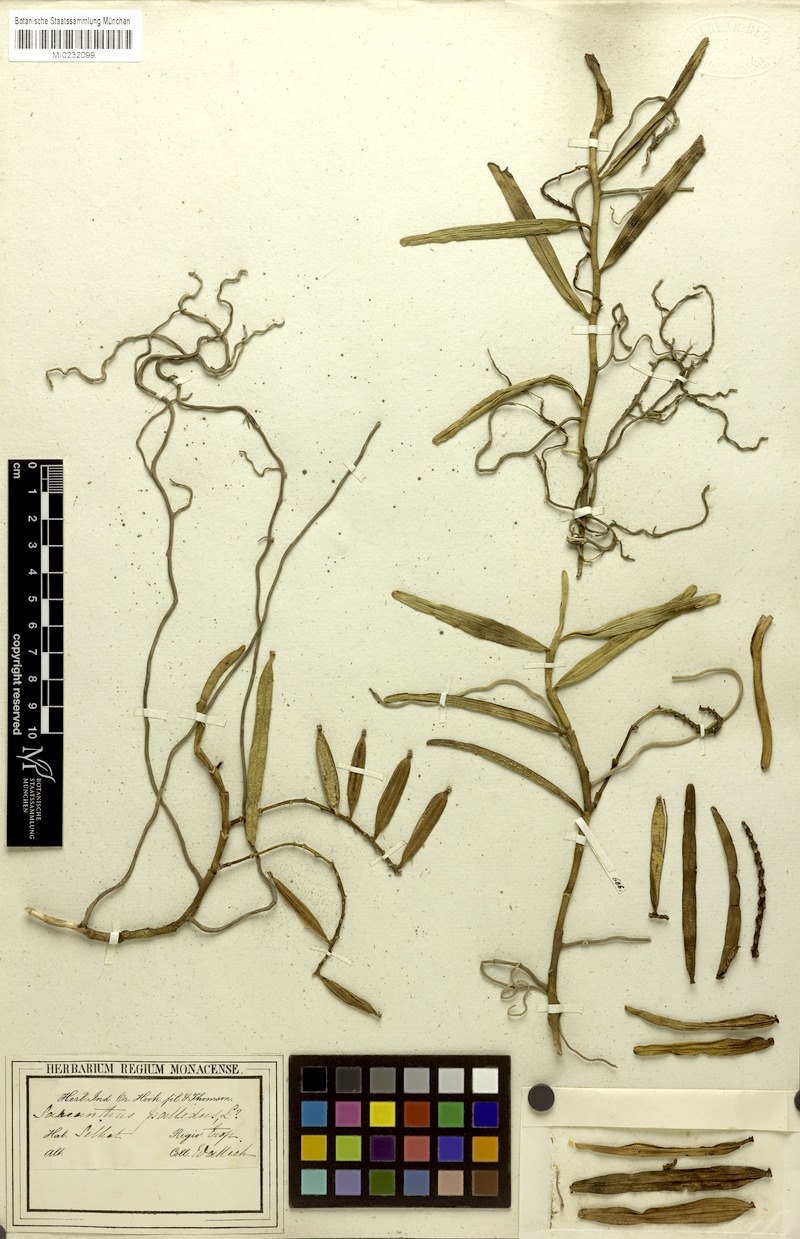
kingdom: Plantae
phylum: Tracheophyta
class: Liliopsida
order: Asparagales
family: Orchidaceae
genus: Cleisostoma
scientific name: Cleisostoma racemiferum
